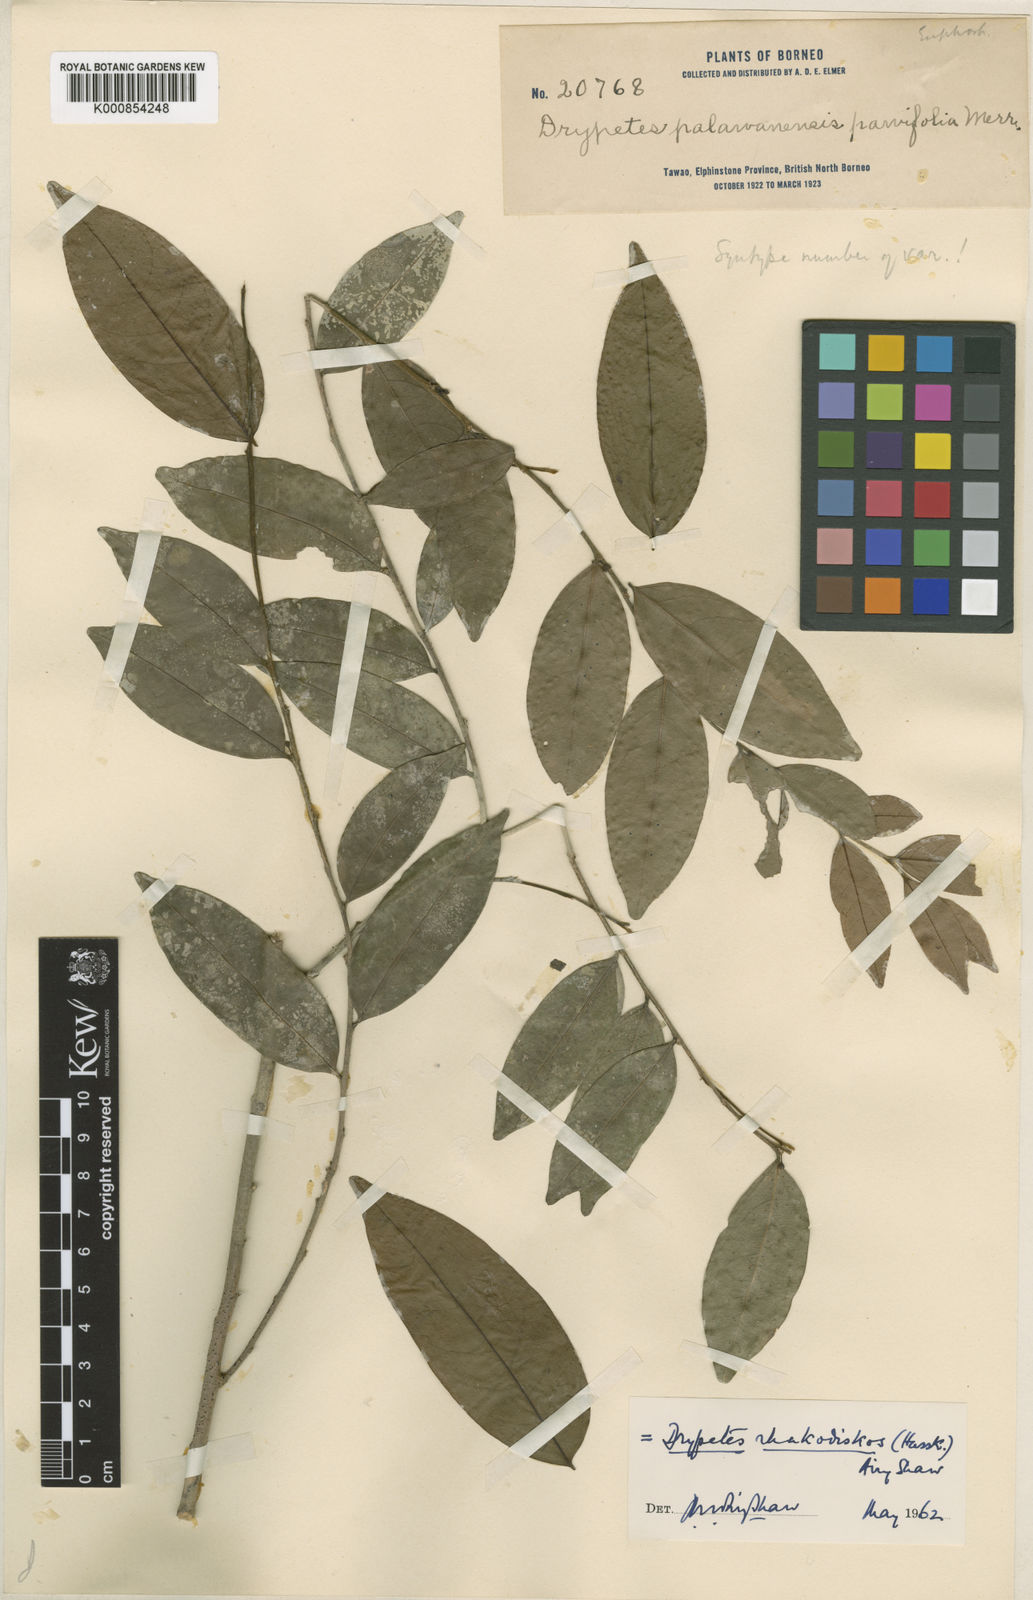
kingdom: Plantae
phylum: Tracheophyta
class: Magnoliopsida
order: Malpighiales
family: Putranjivaceae
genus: Drypetes
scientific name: Drypetes
